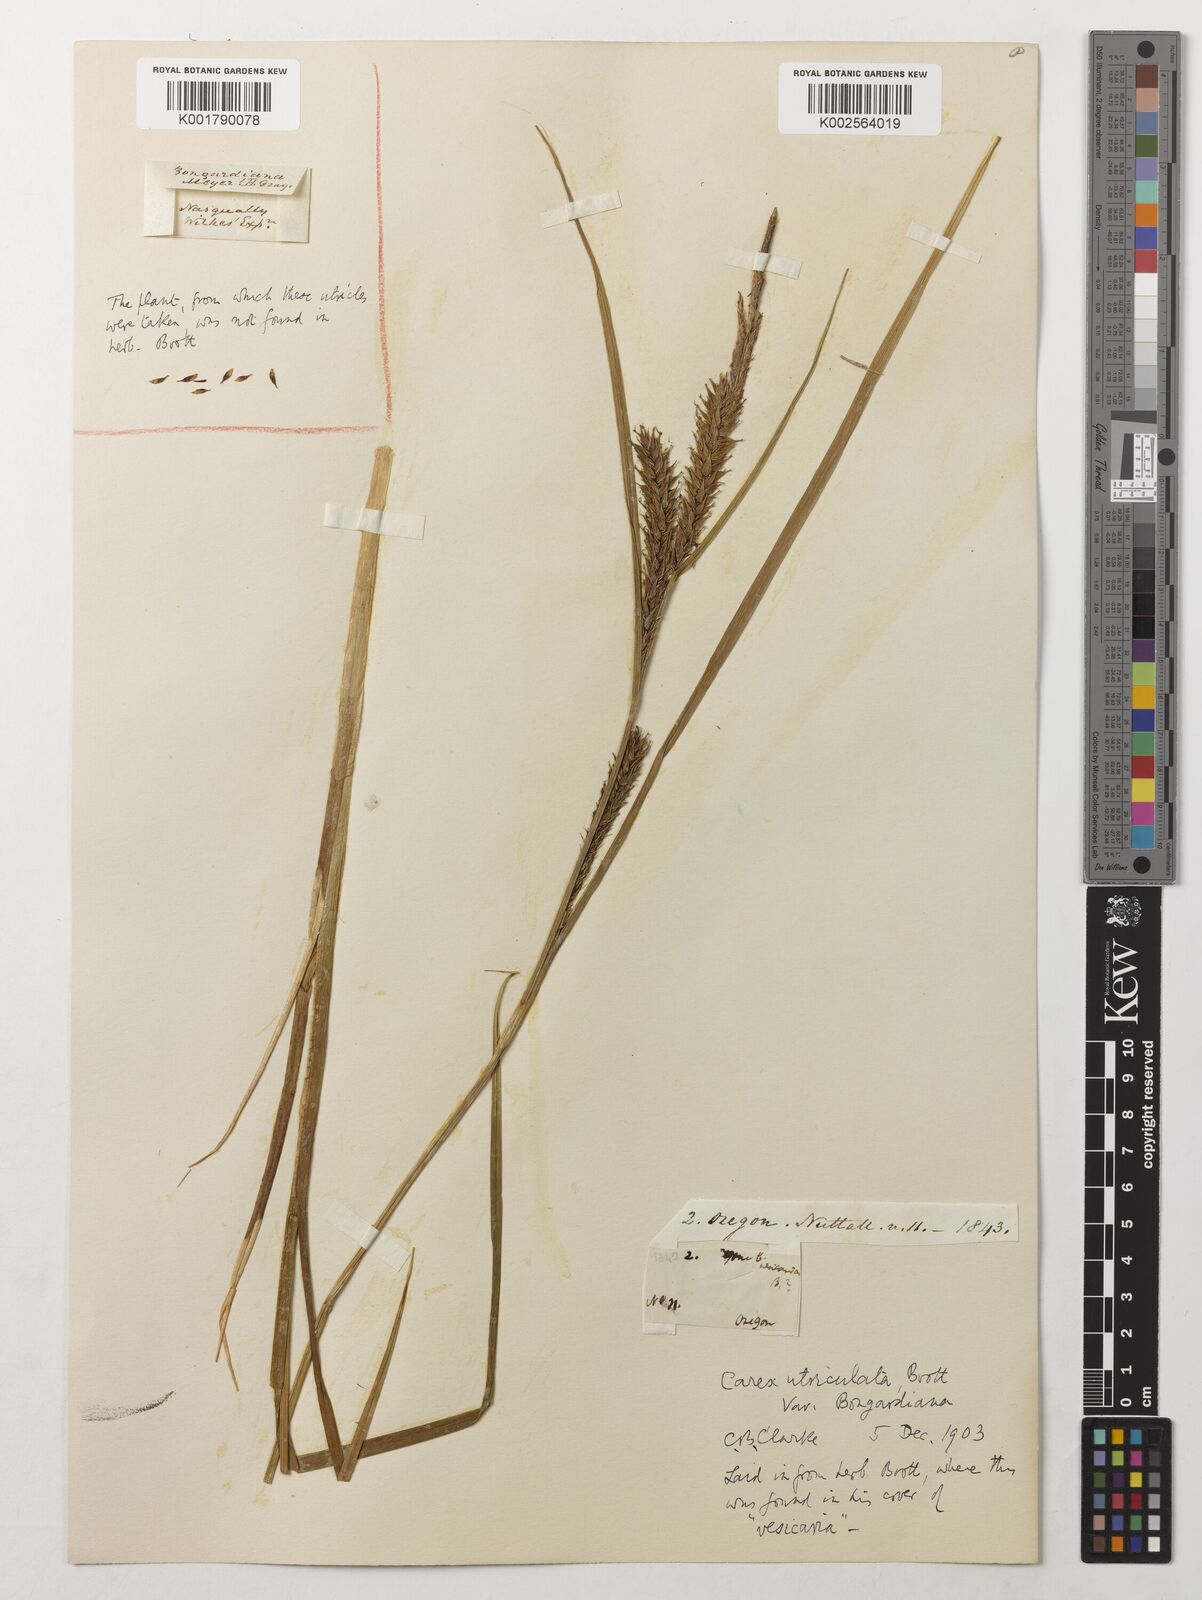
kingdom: Plantae
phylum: Tracheophyta
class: Liliopsida
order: Poales
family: Cyperaceae
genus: Carex
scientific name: Carex utriculata
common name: Beaked sedge
